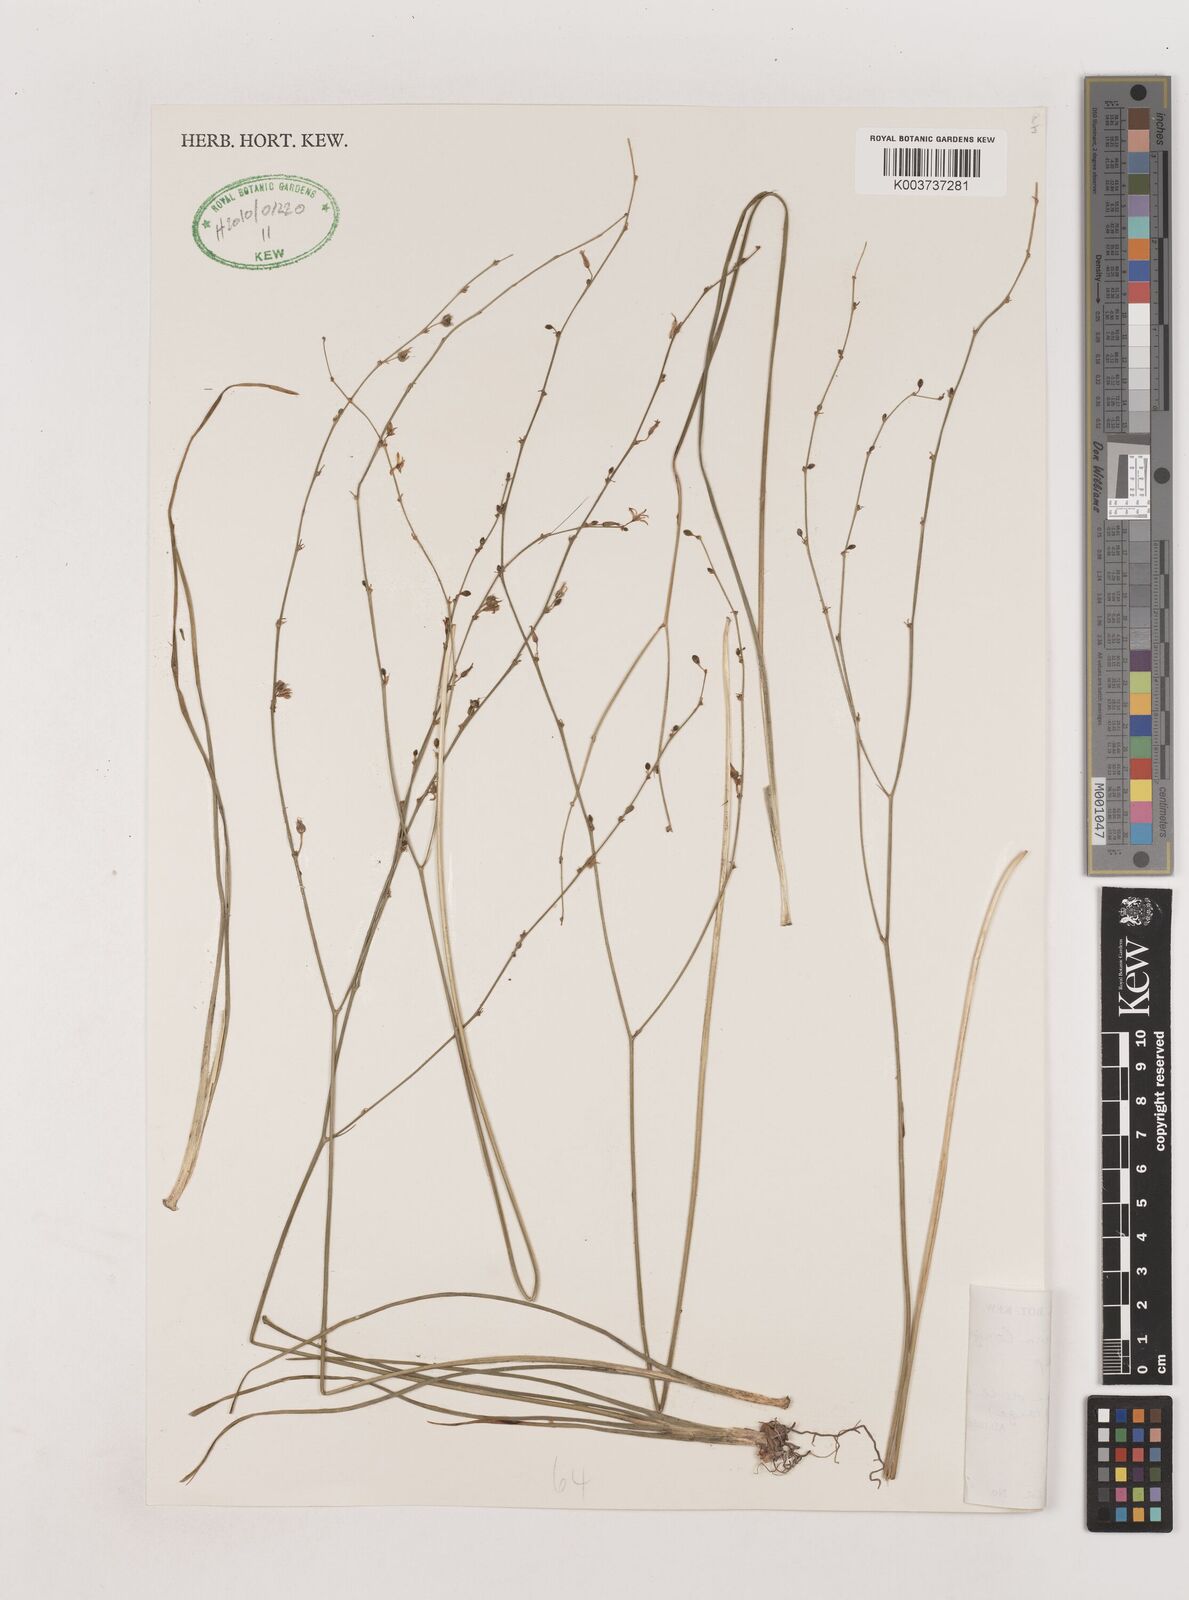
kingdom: Plantae
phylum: Tracheophyta
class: Liliopsida
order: Asparagales
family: Asparagaceae
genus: Chlorophytum
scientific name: Chlorophytum angustissimum
